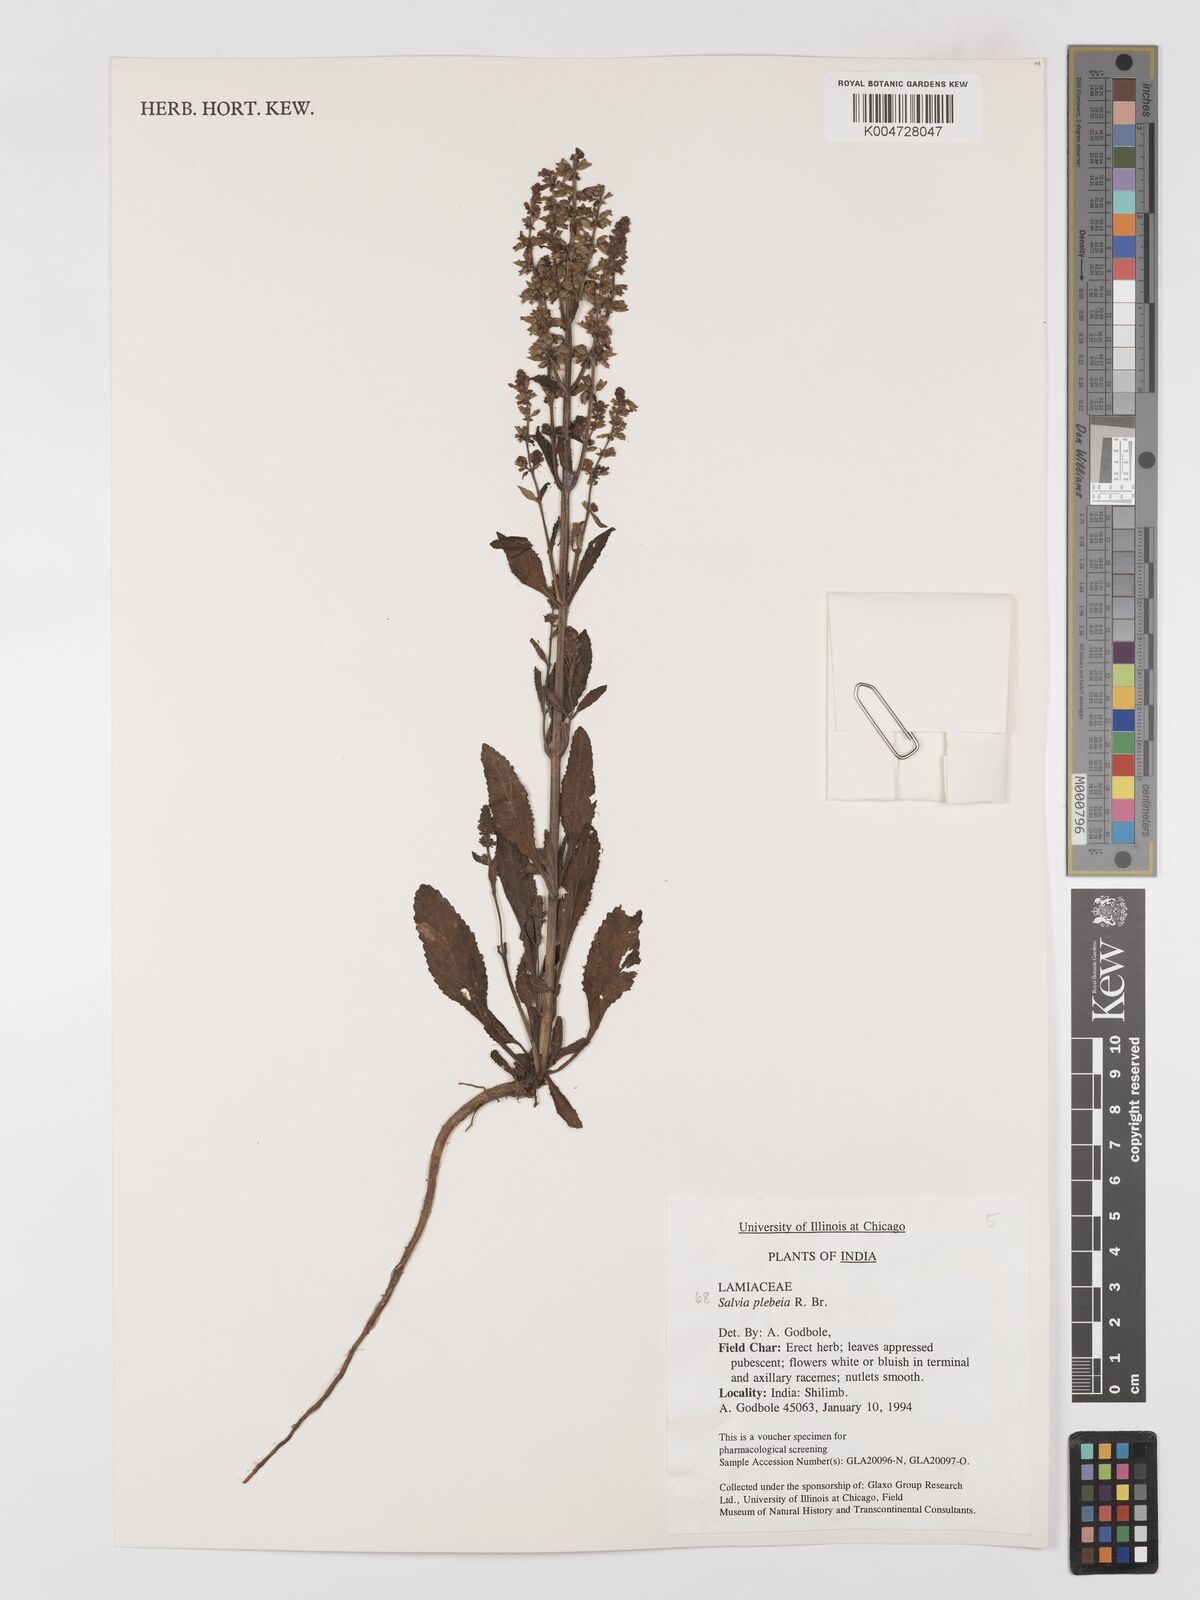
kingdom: Plantae
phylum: Tracheophyta
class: Magnoliopsida
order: Lamiales
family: Lamiaceae
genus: Salvia
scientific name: Salvia plebeia
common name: Australian sage
